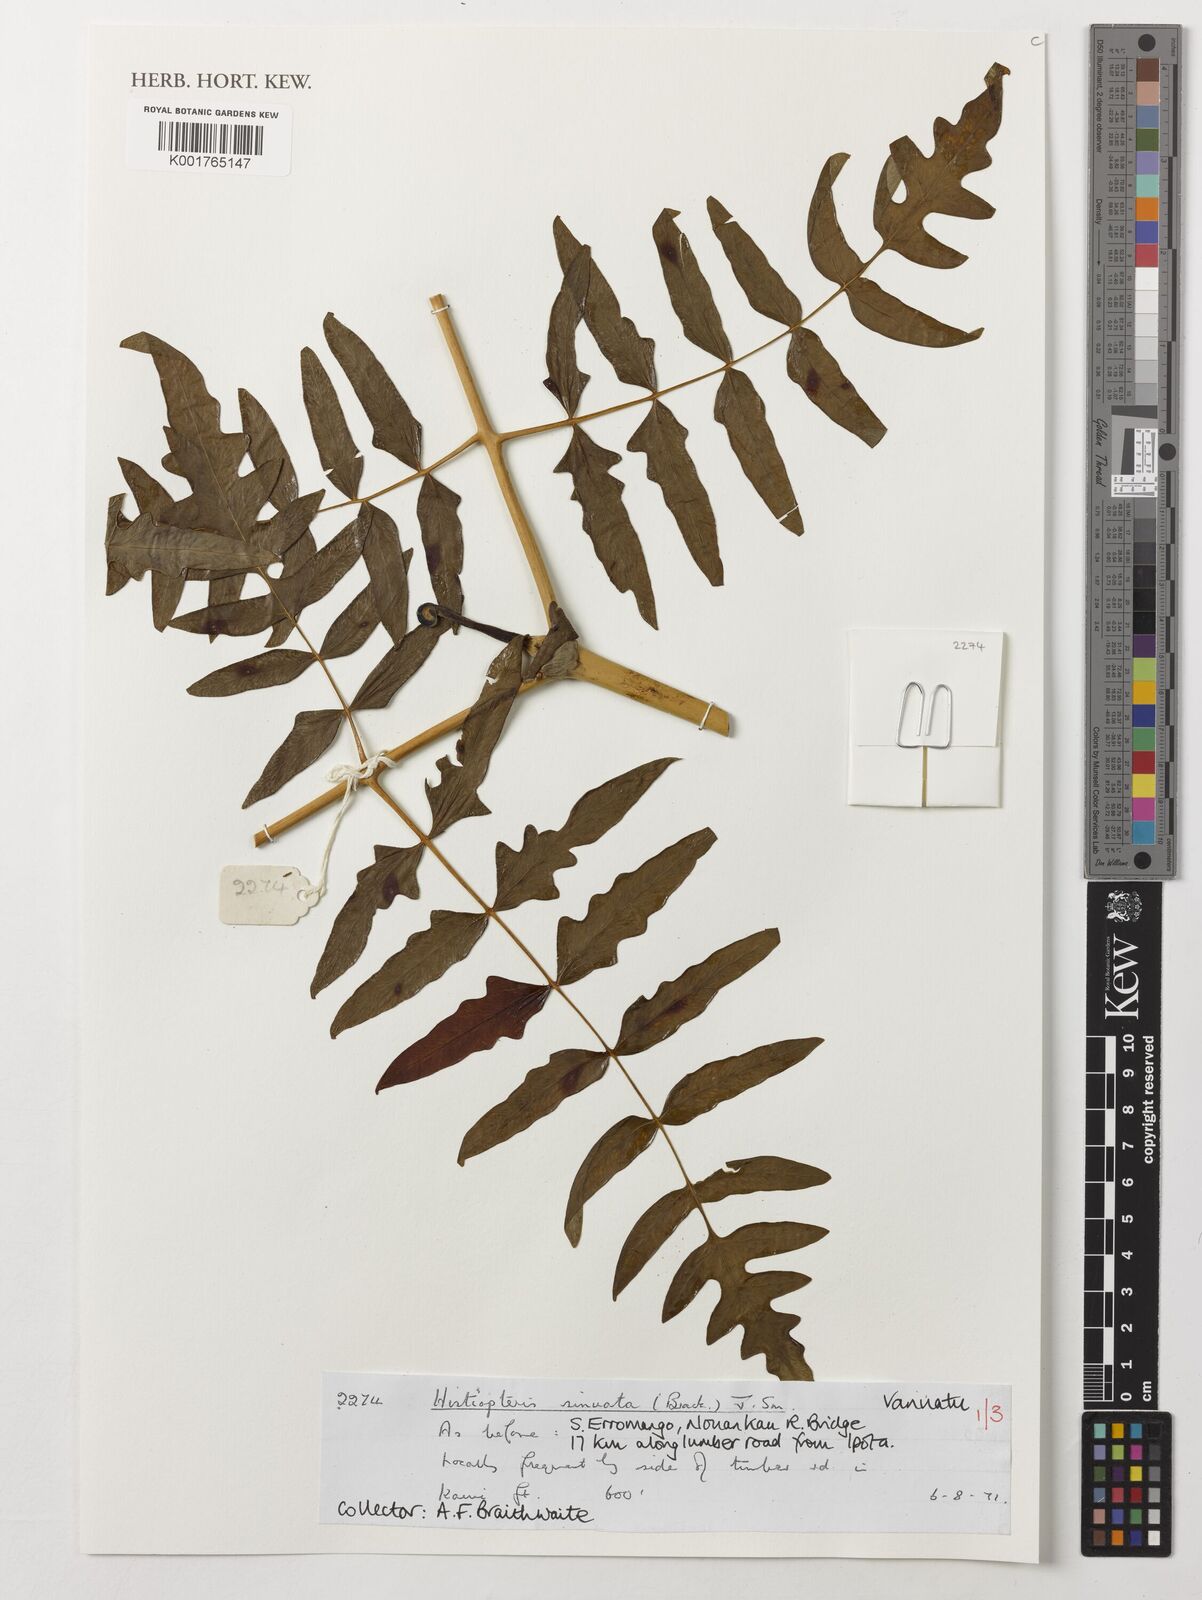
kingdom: Plantae
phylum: Tracheophyta
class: Polypodiopsida
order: Polypodiales
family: Dennstaedtiaceae
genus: Histiopteris
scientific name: Histiopteris incisa
